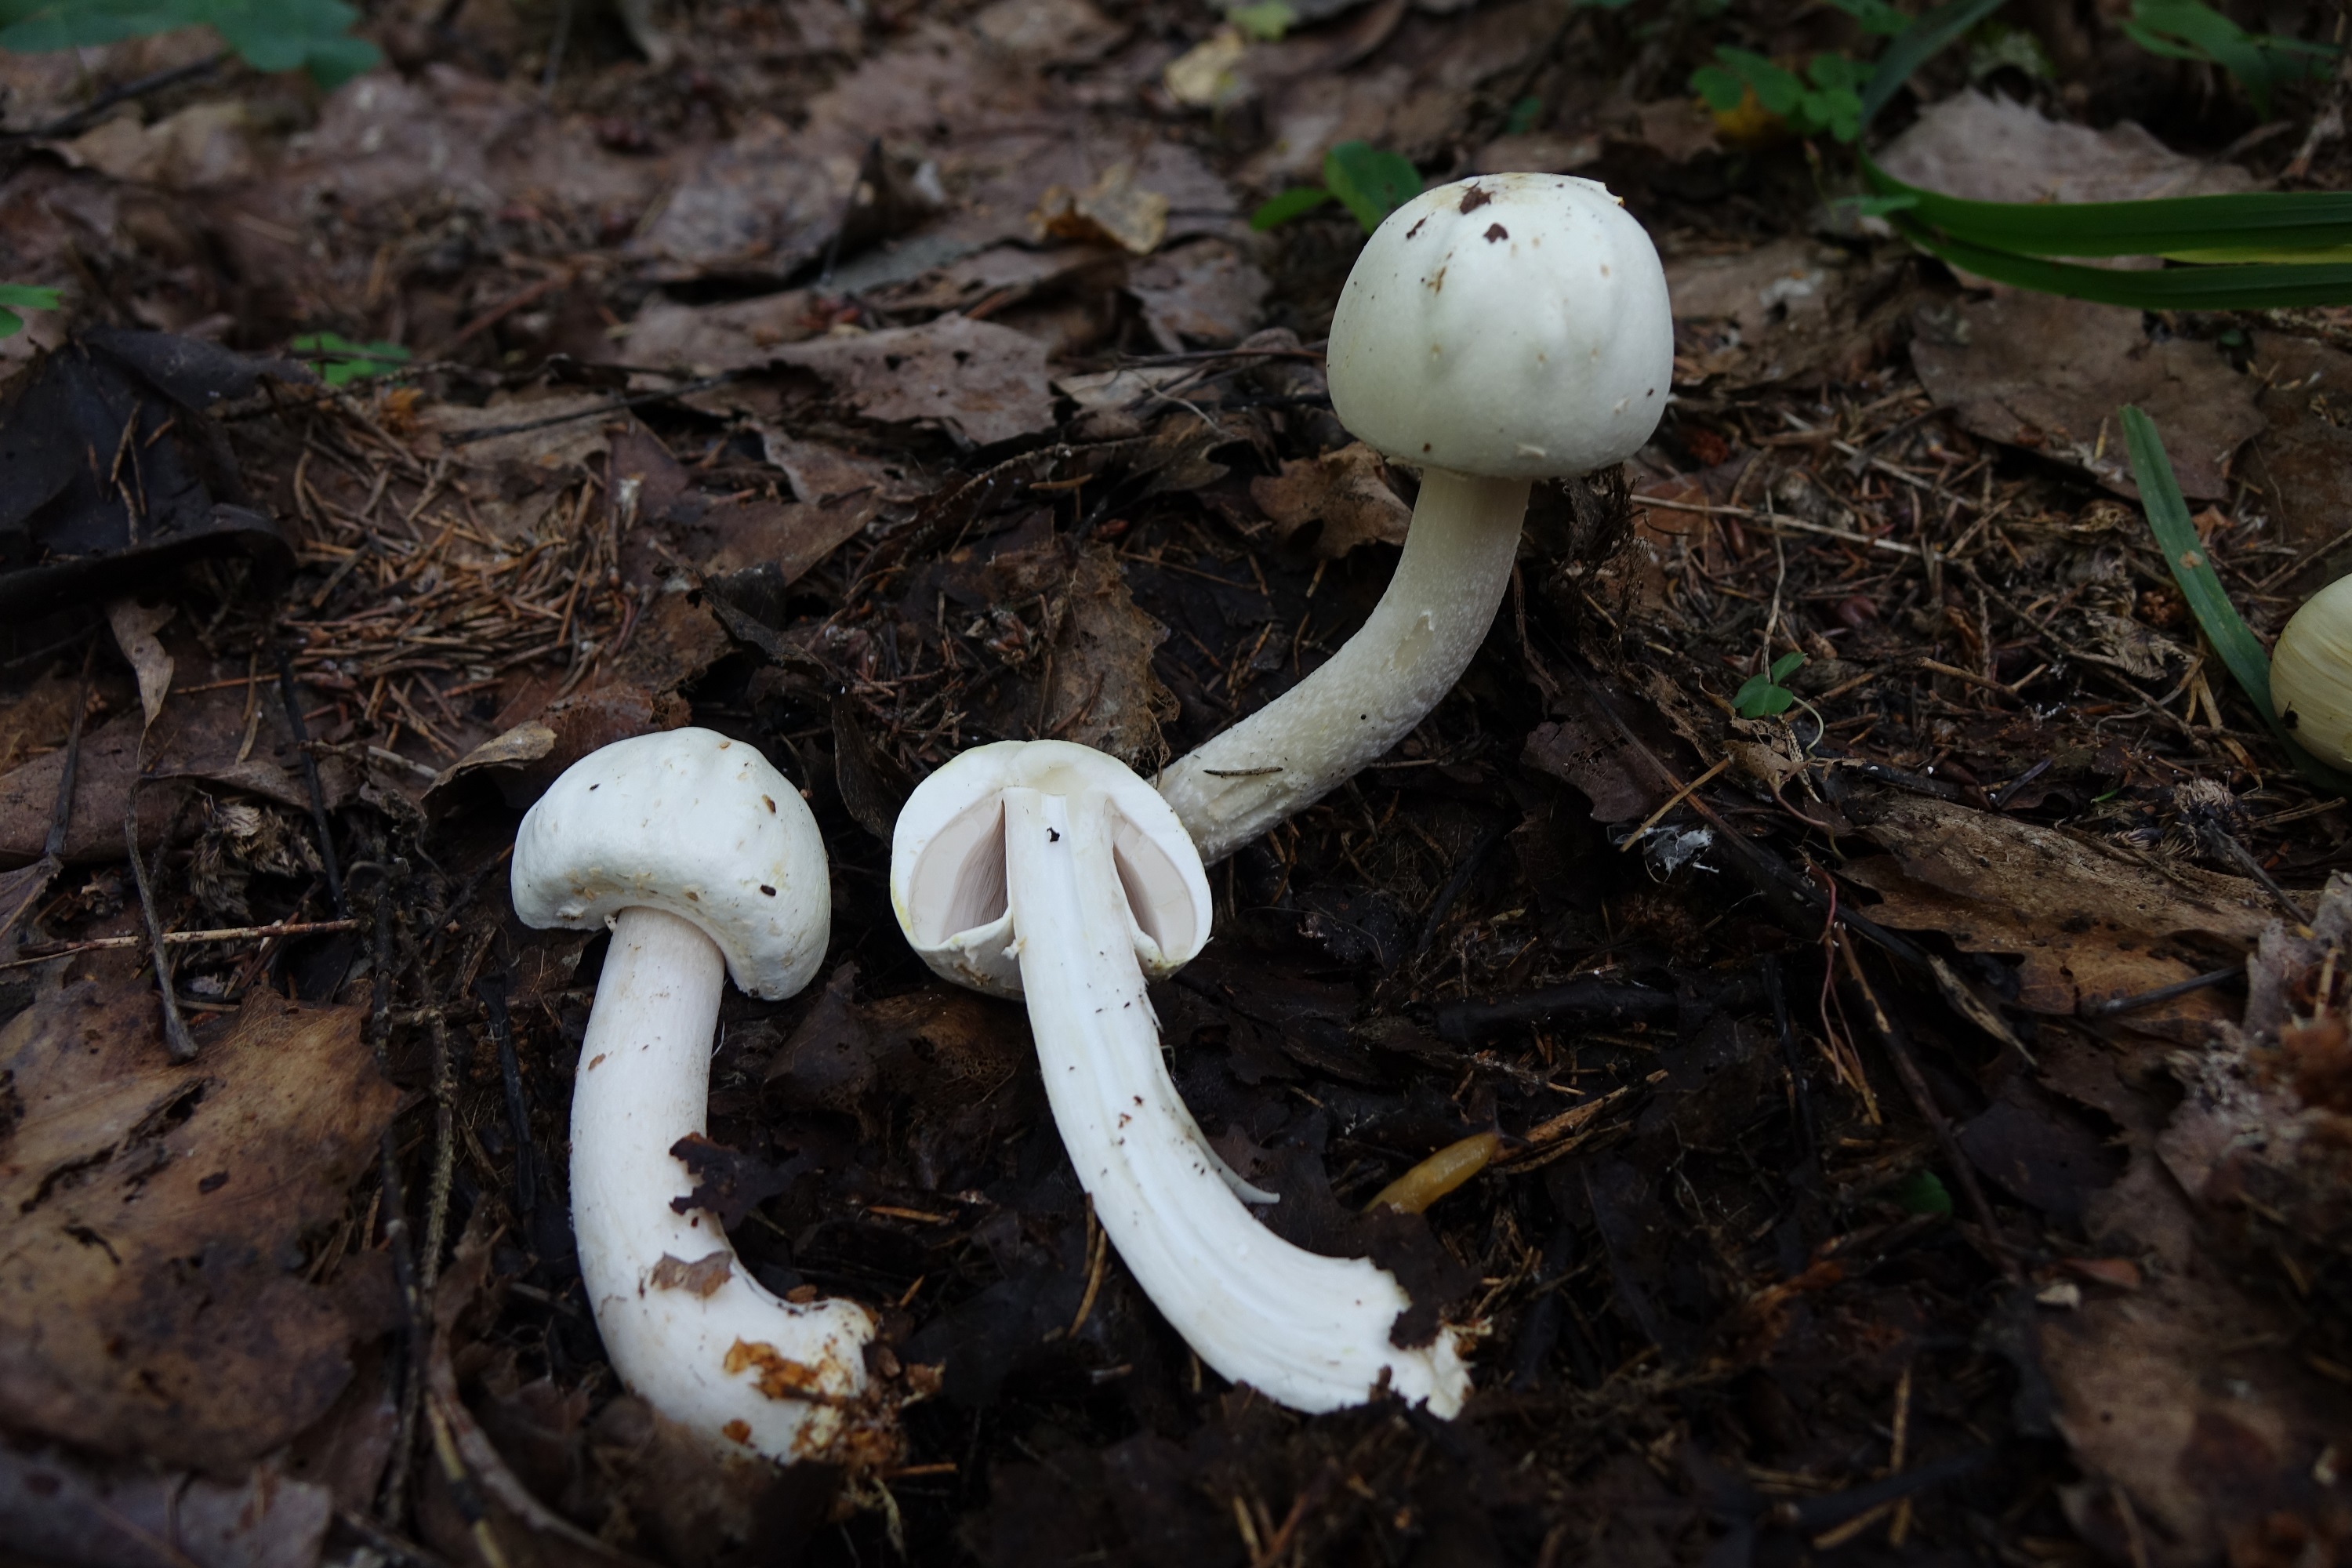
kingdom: Fungi
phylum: Basidiomycota
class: Agaricomycetes
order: Agaricales
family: Agaricaceae
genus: Agaricus
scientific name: Agaricus sylvicola
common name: Wood mushroom
